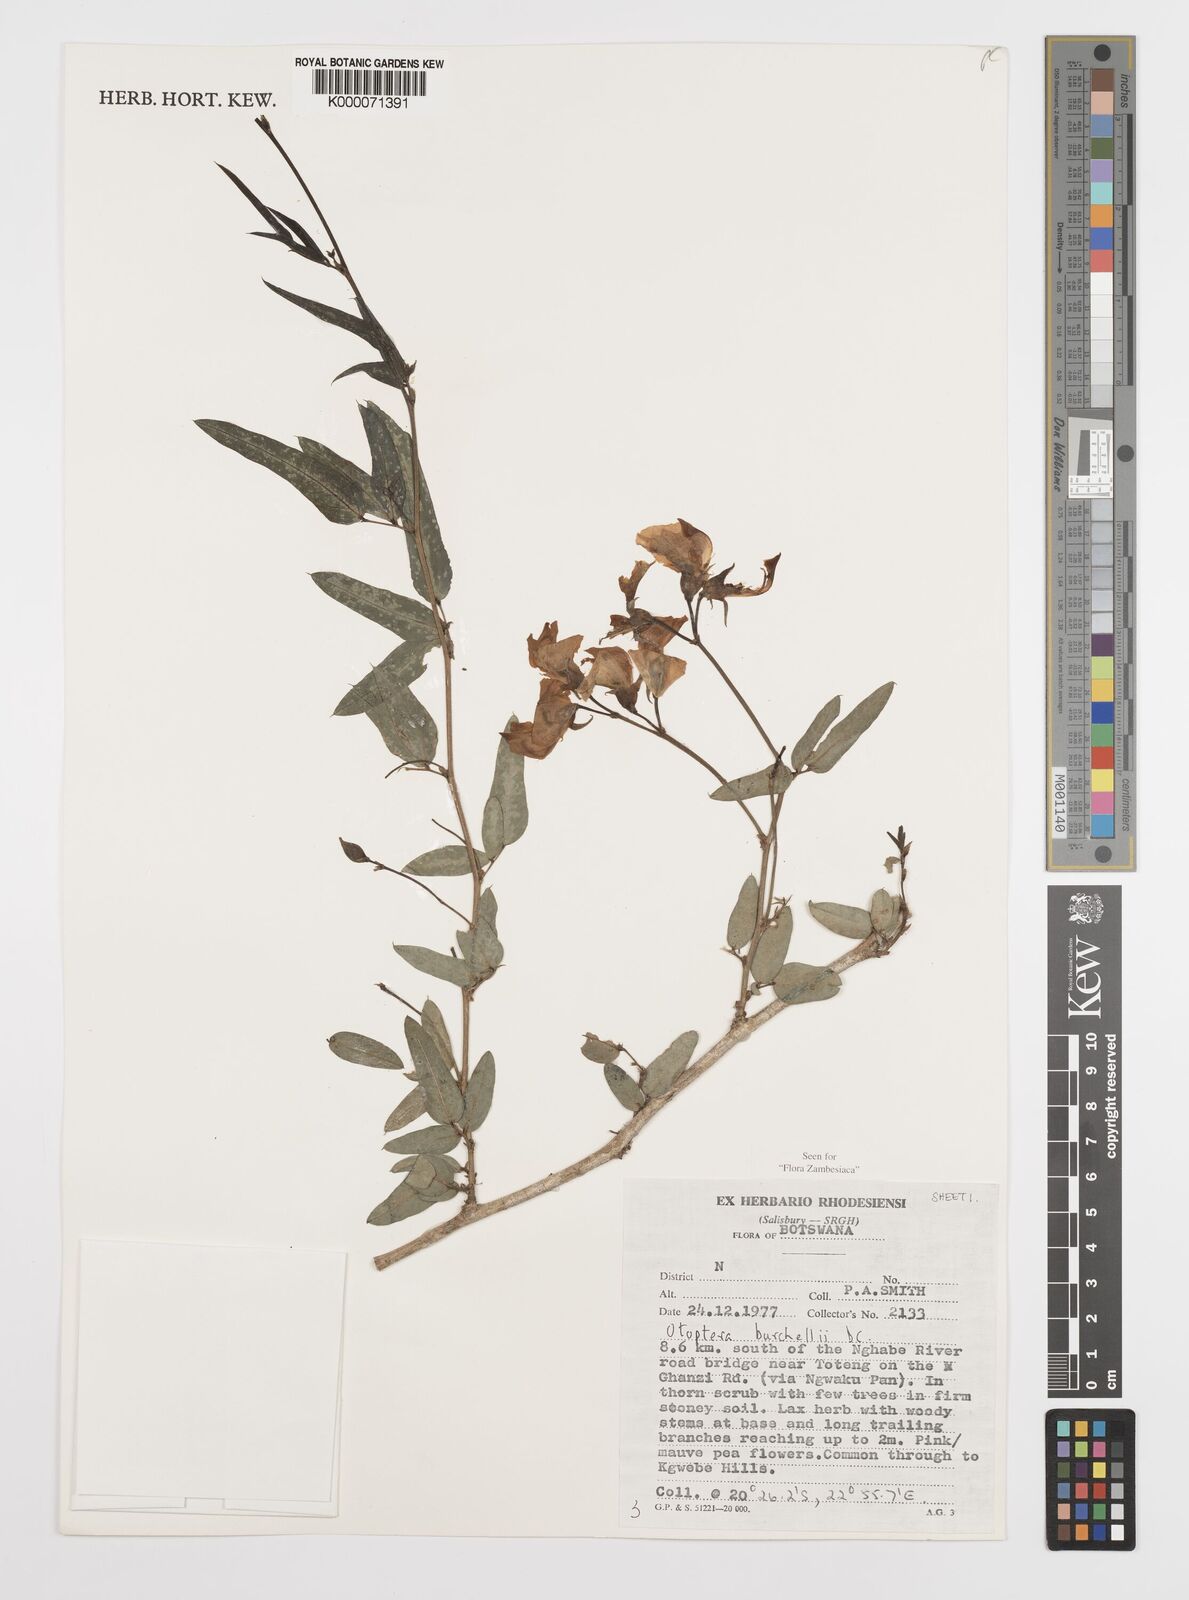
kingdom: Plantae
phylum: Tracheophyta
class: Magnoliopsida
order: Fabales
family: Fabaceae
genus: Otoptera
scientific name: Otoptera burchellii
